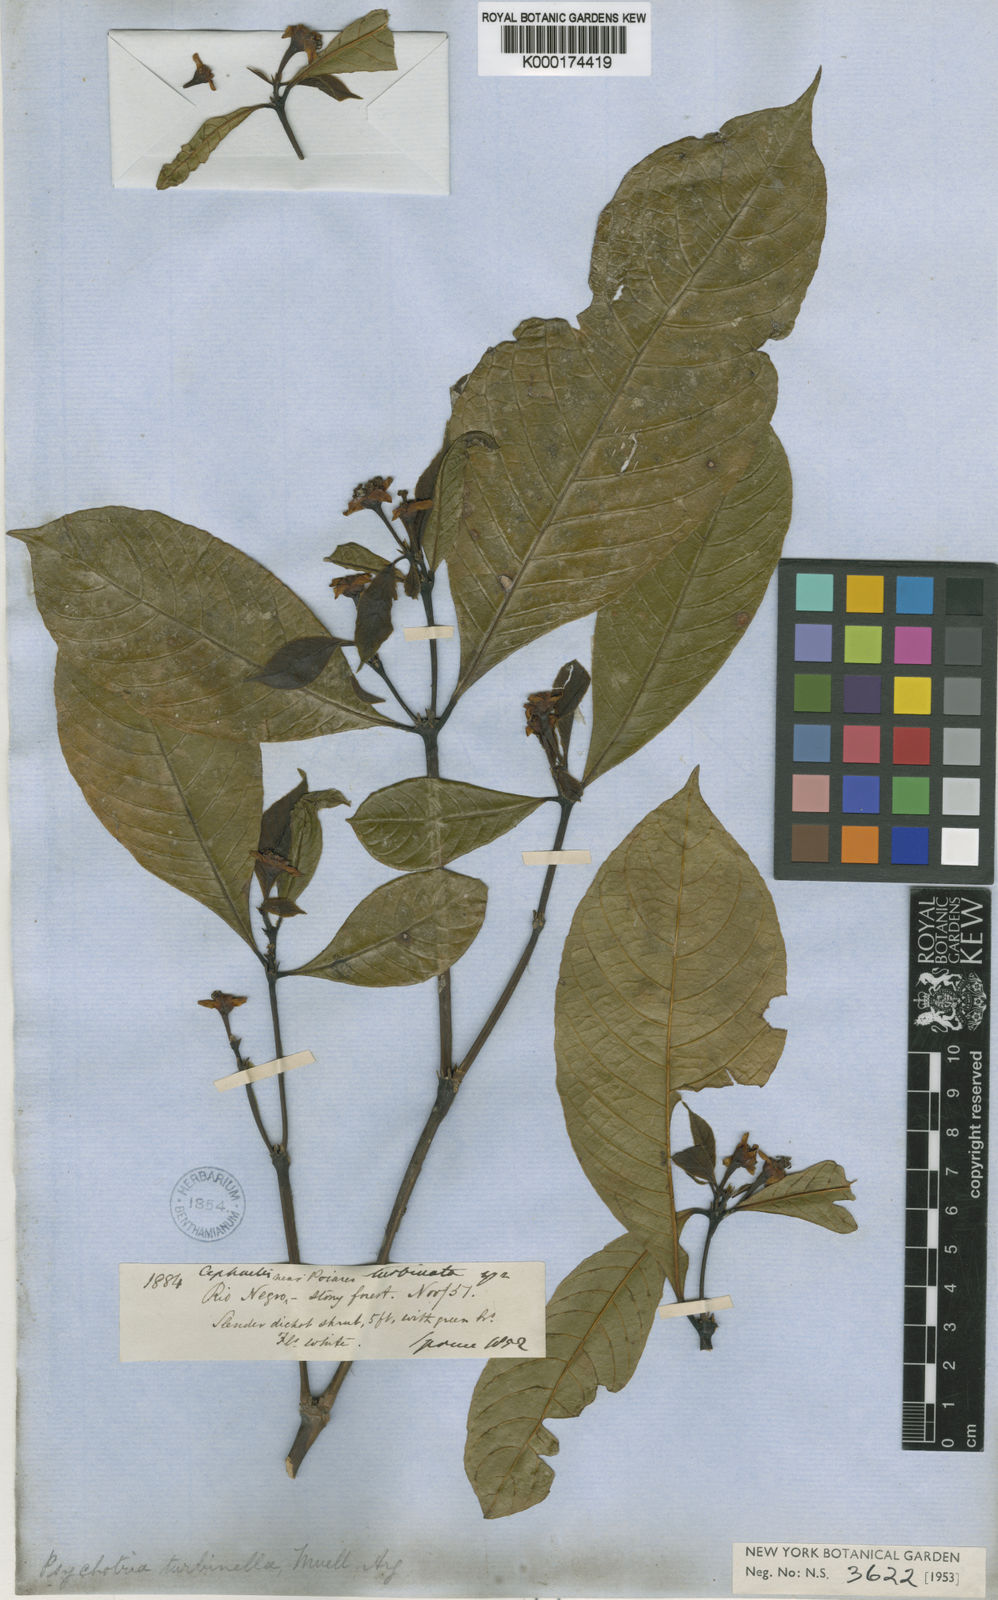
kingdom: Plantae
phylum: Tracheophyta
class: Magnoliopsida
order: Gentianales
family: Rubiaceae
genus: Psychotria
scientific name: Psychotria
